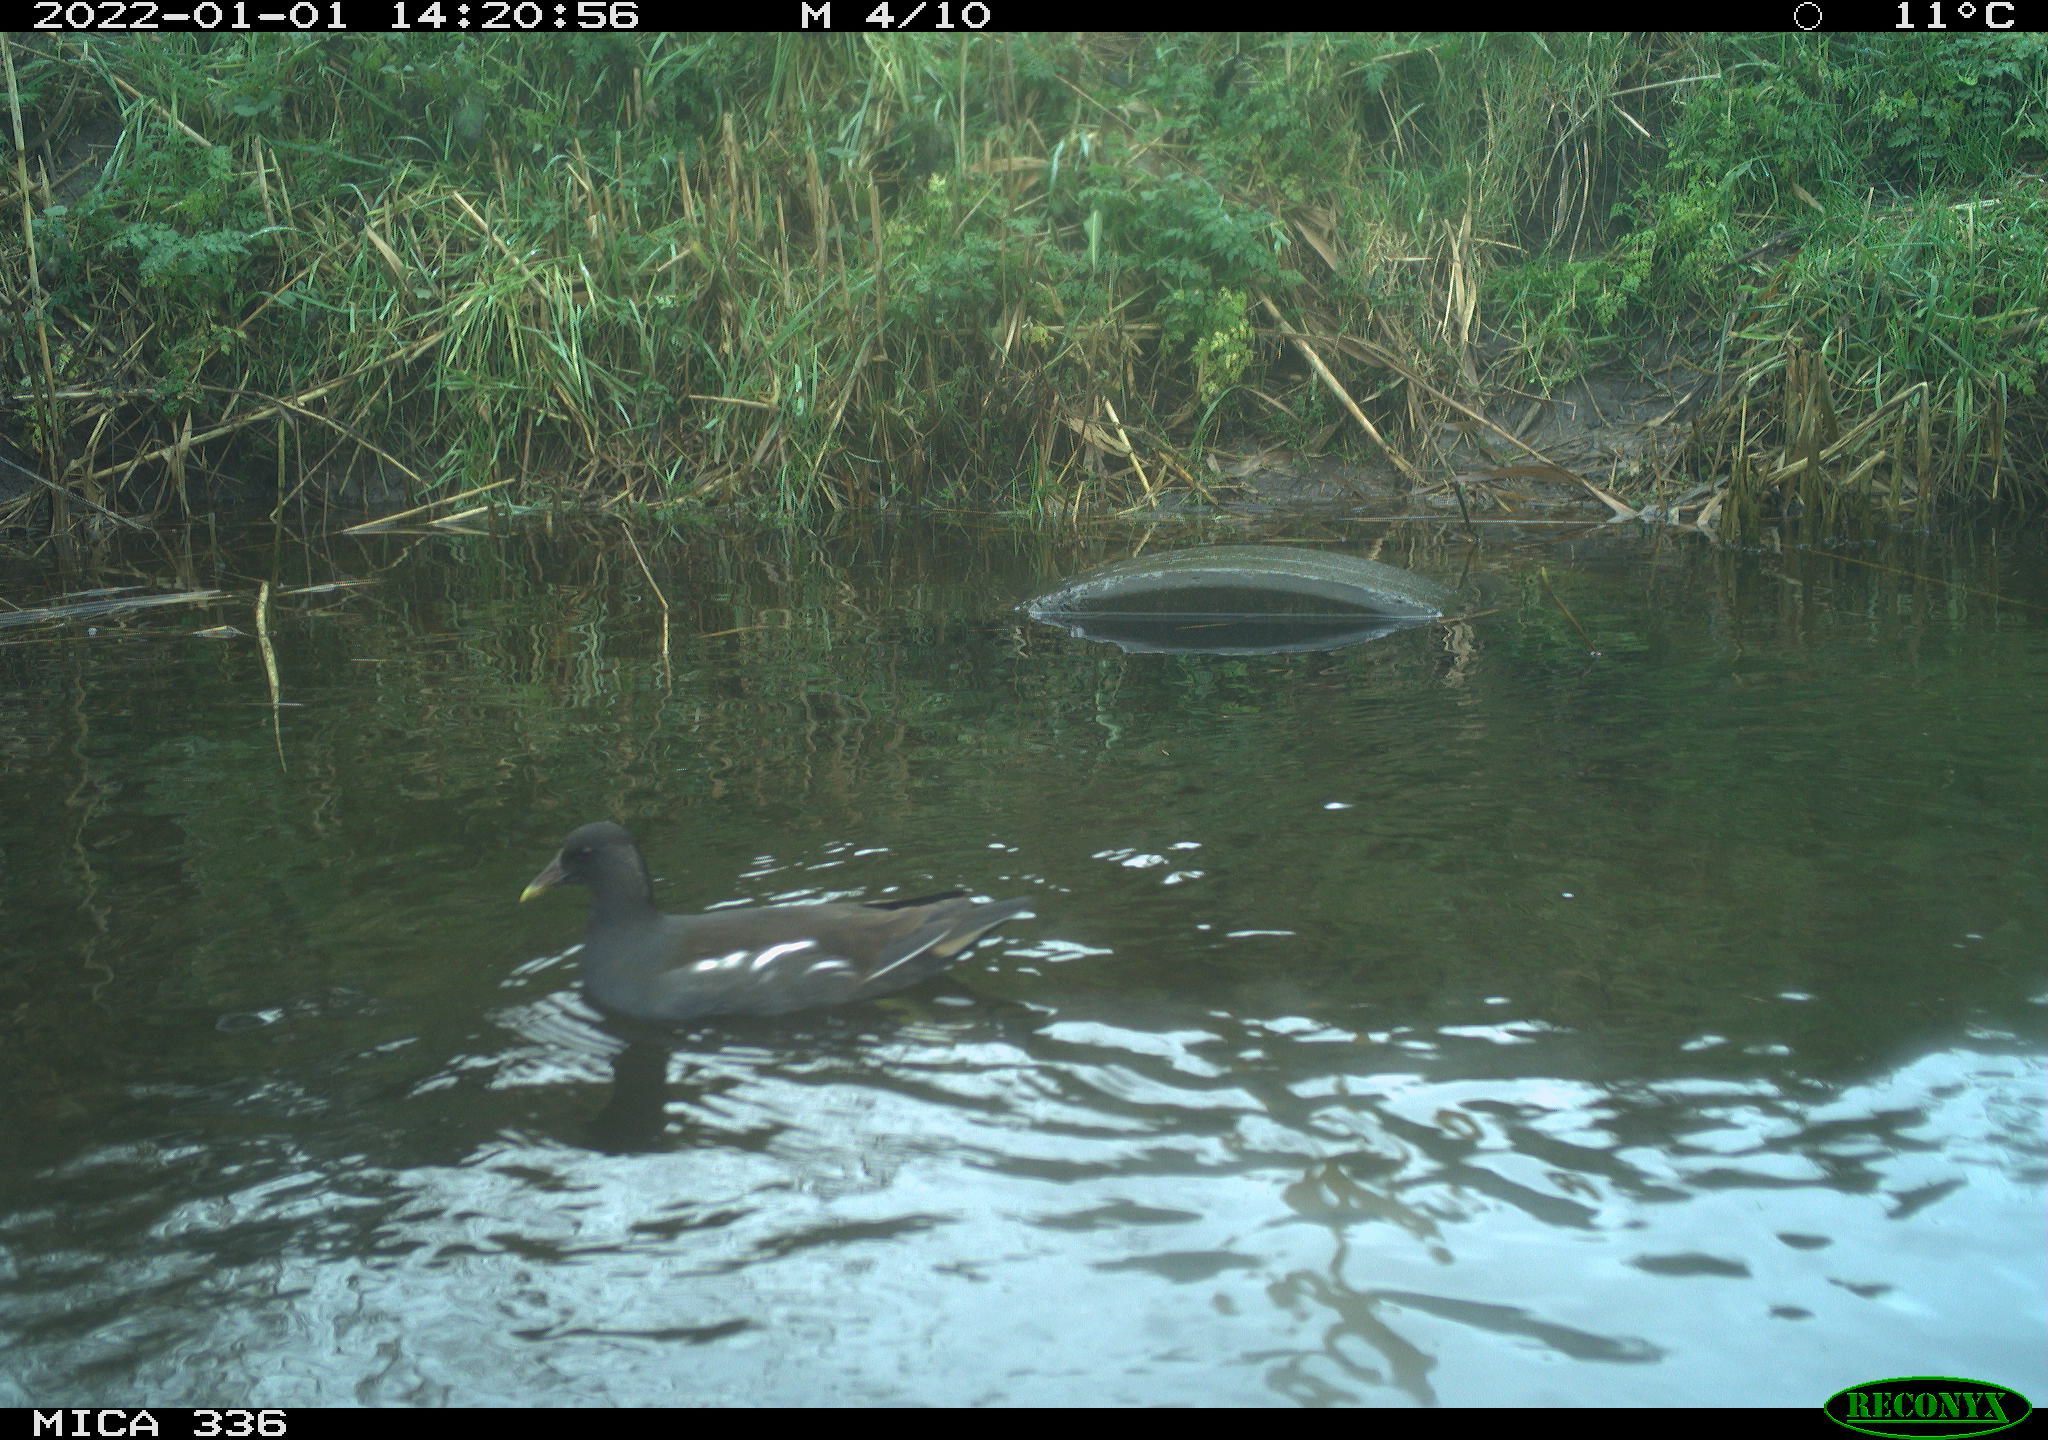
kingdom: Animalia
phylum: Chordata
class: Aves
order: Gruiformes
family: Rallidae
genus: Gallinula
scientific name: Gallinula chloropus
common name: Common moorhen
